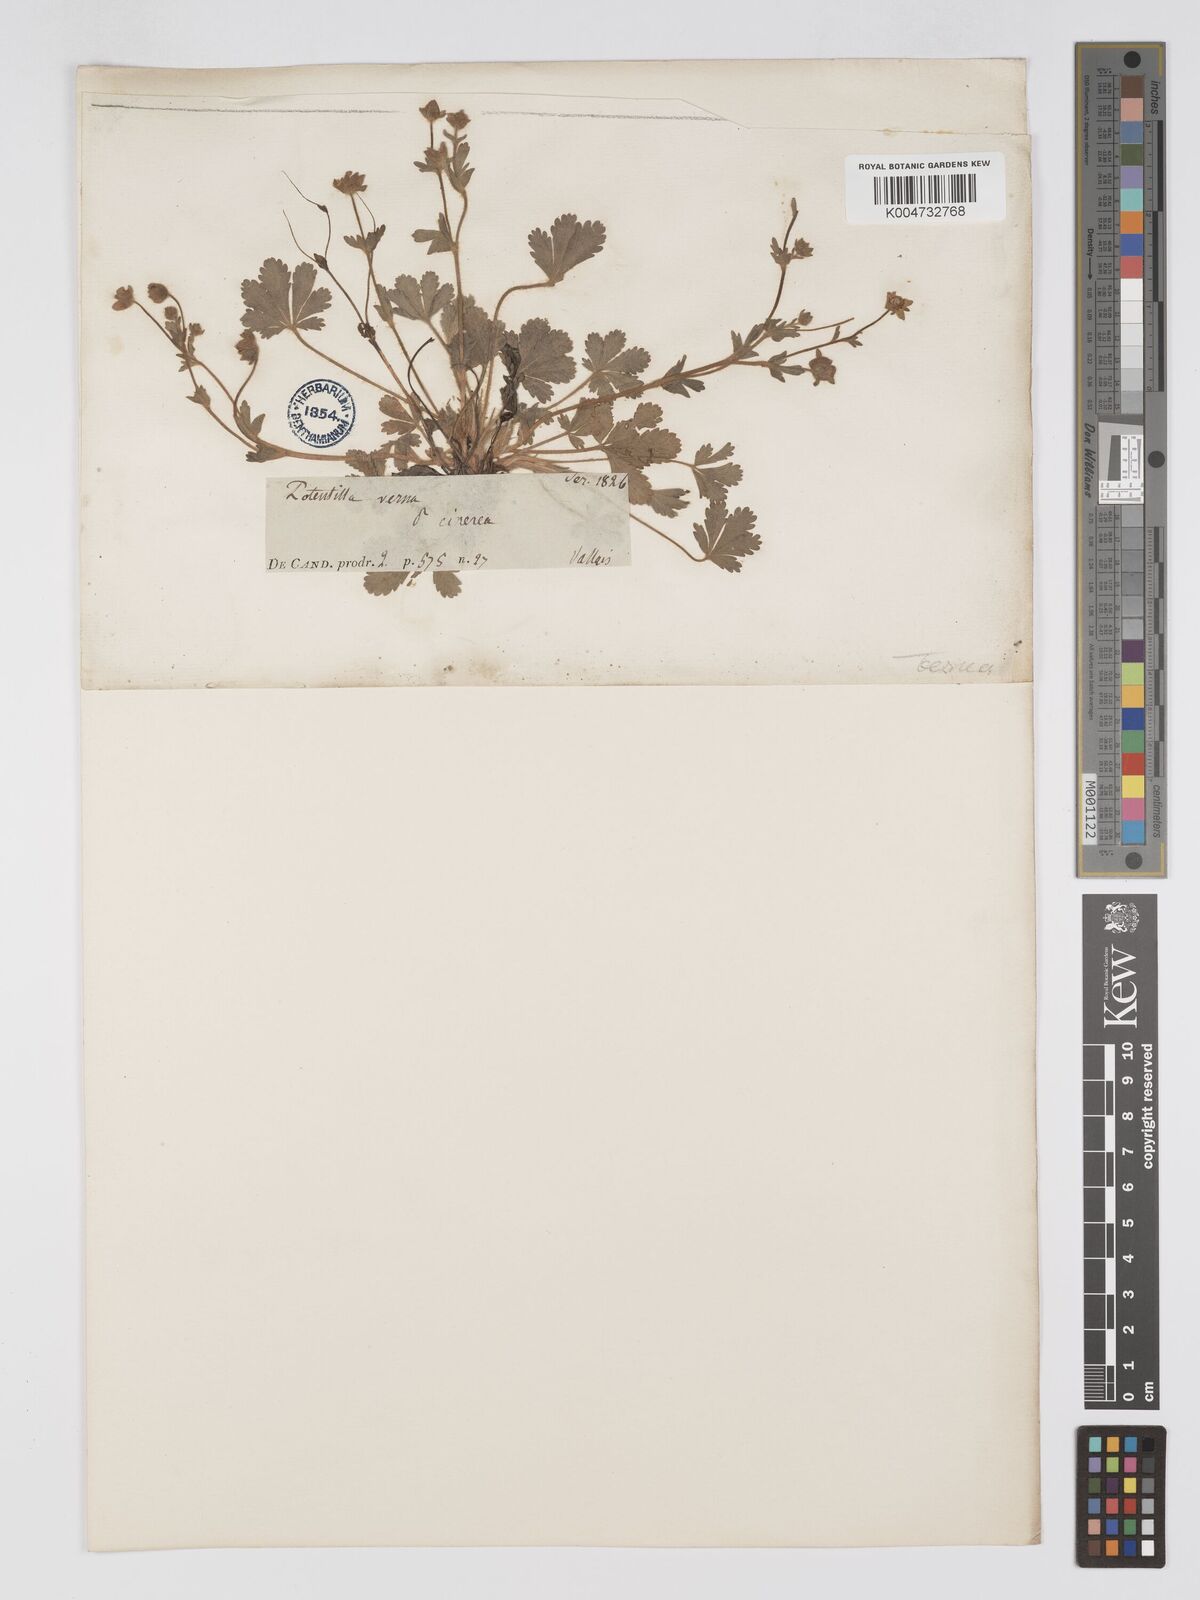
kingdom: Plantae
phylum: Tracheophyta
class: Magnoliopsida
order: Rosales
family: Rosaceae
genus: Potentilla
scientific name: Potentilla
